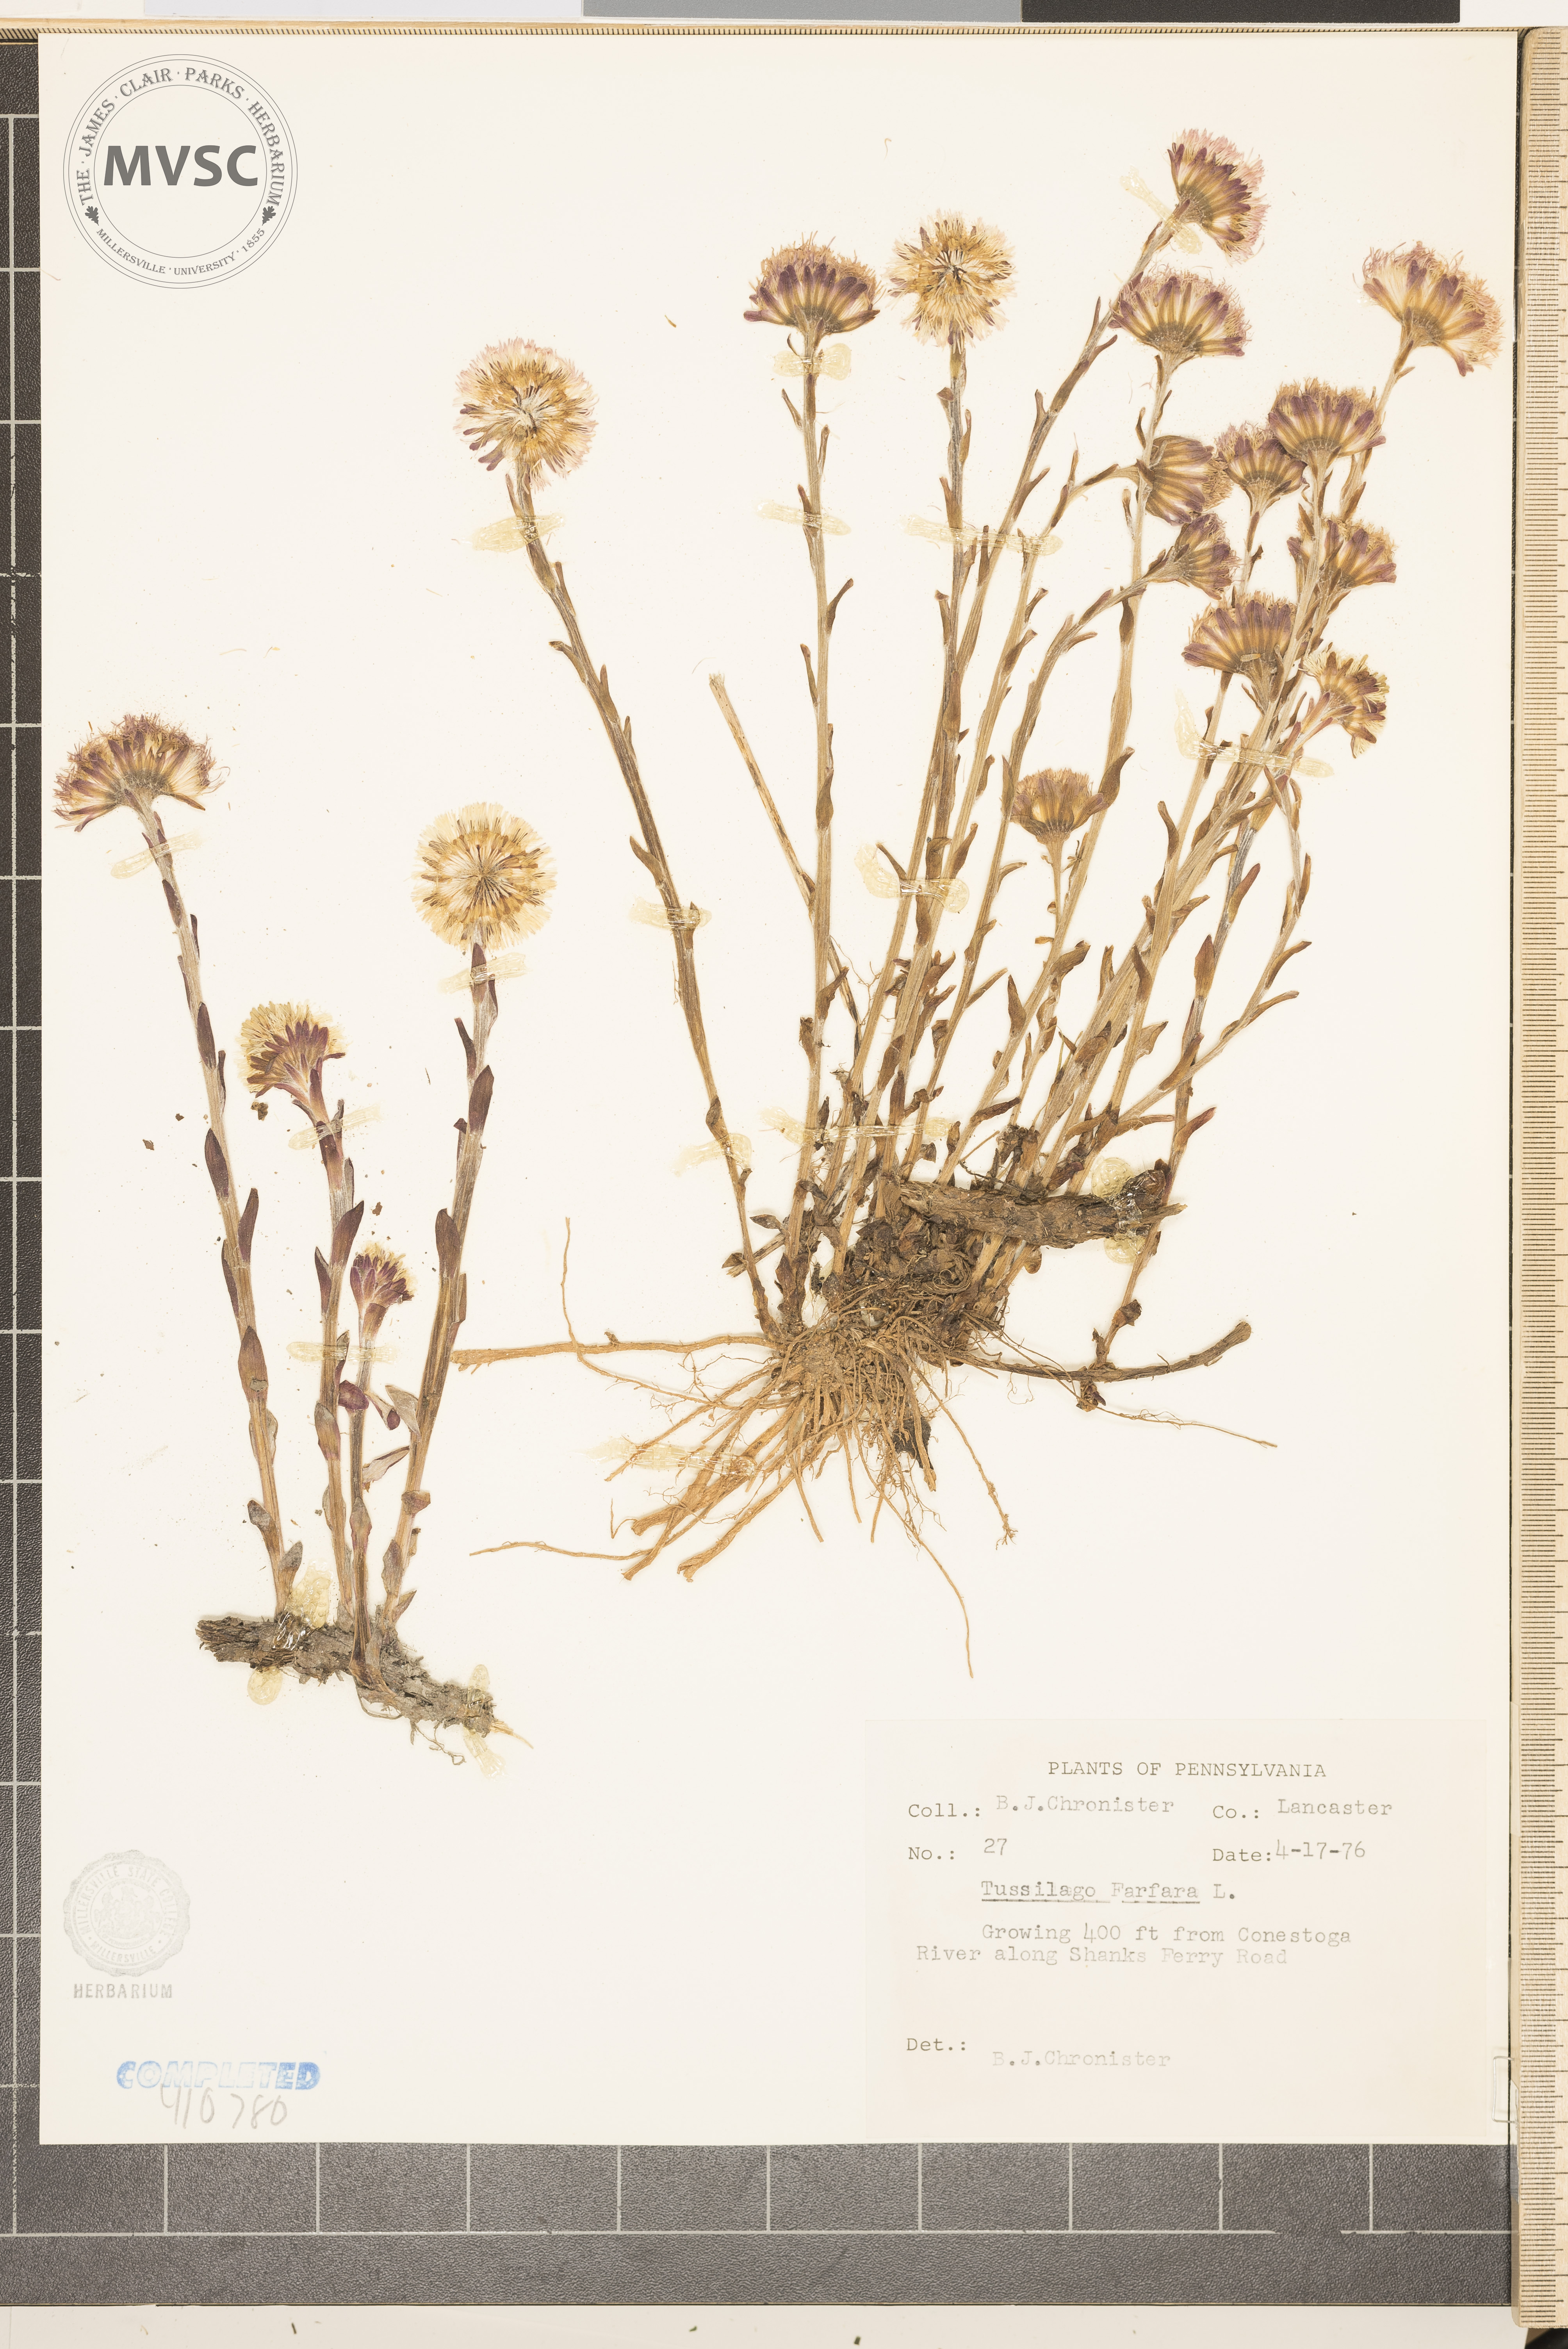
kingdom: Plantae
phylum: Tracheophyta
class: Magnoliopsida
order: Asterales
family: Asteraceae
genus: Tussilago
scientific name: Tussilago farfara
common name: coltsfoot
